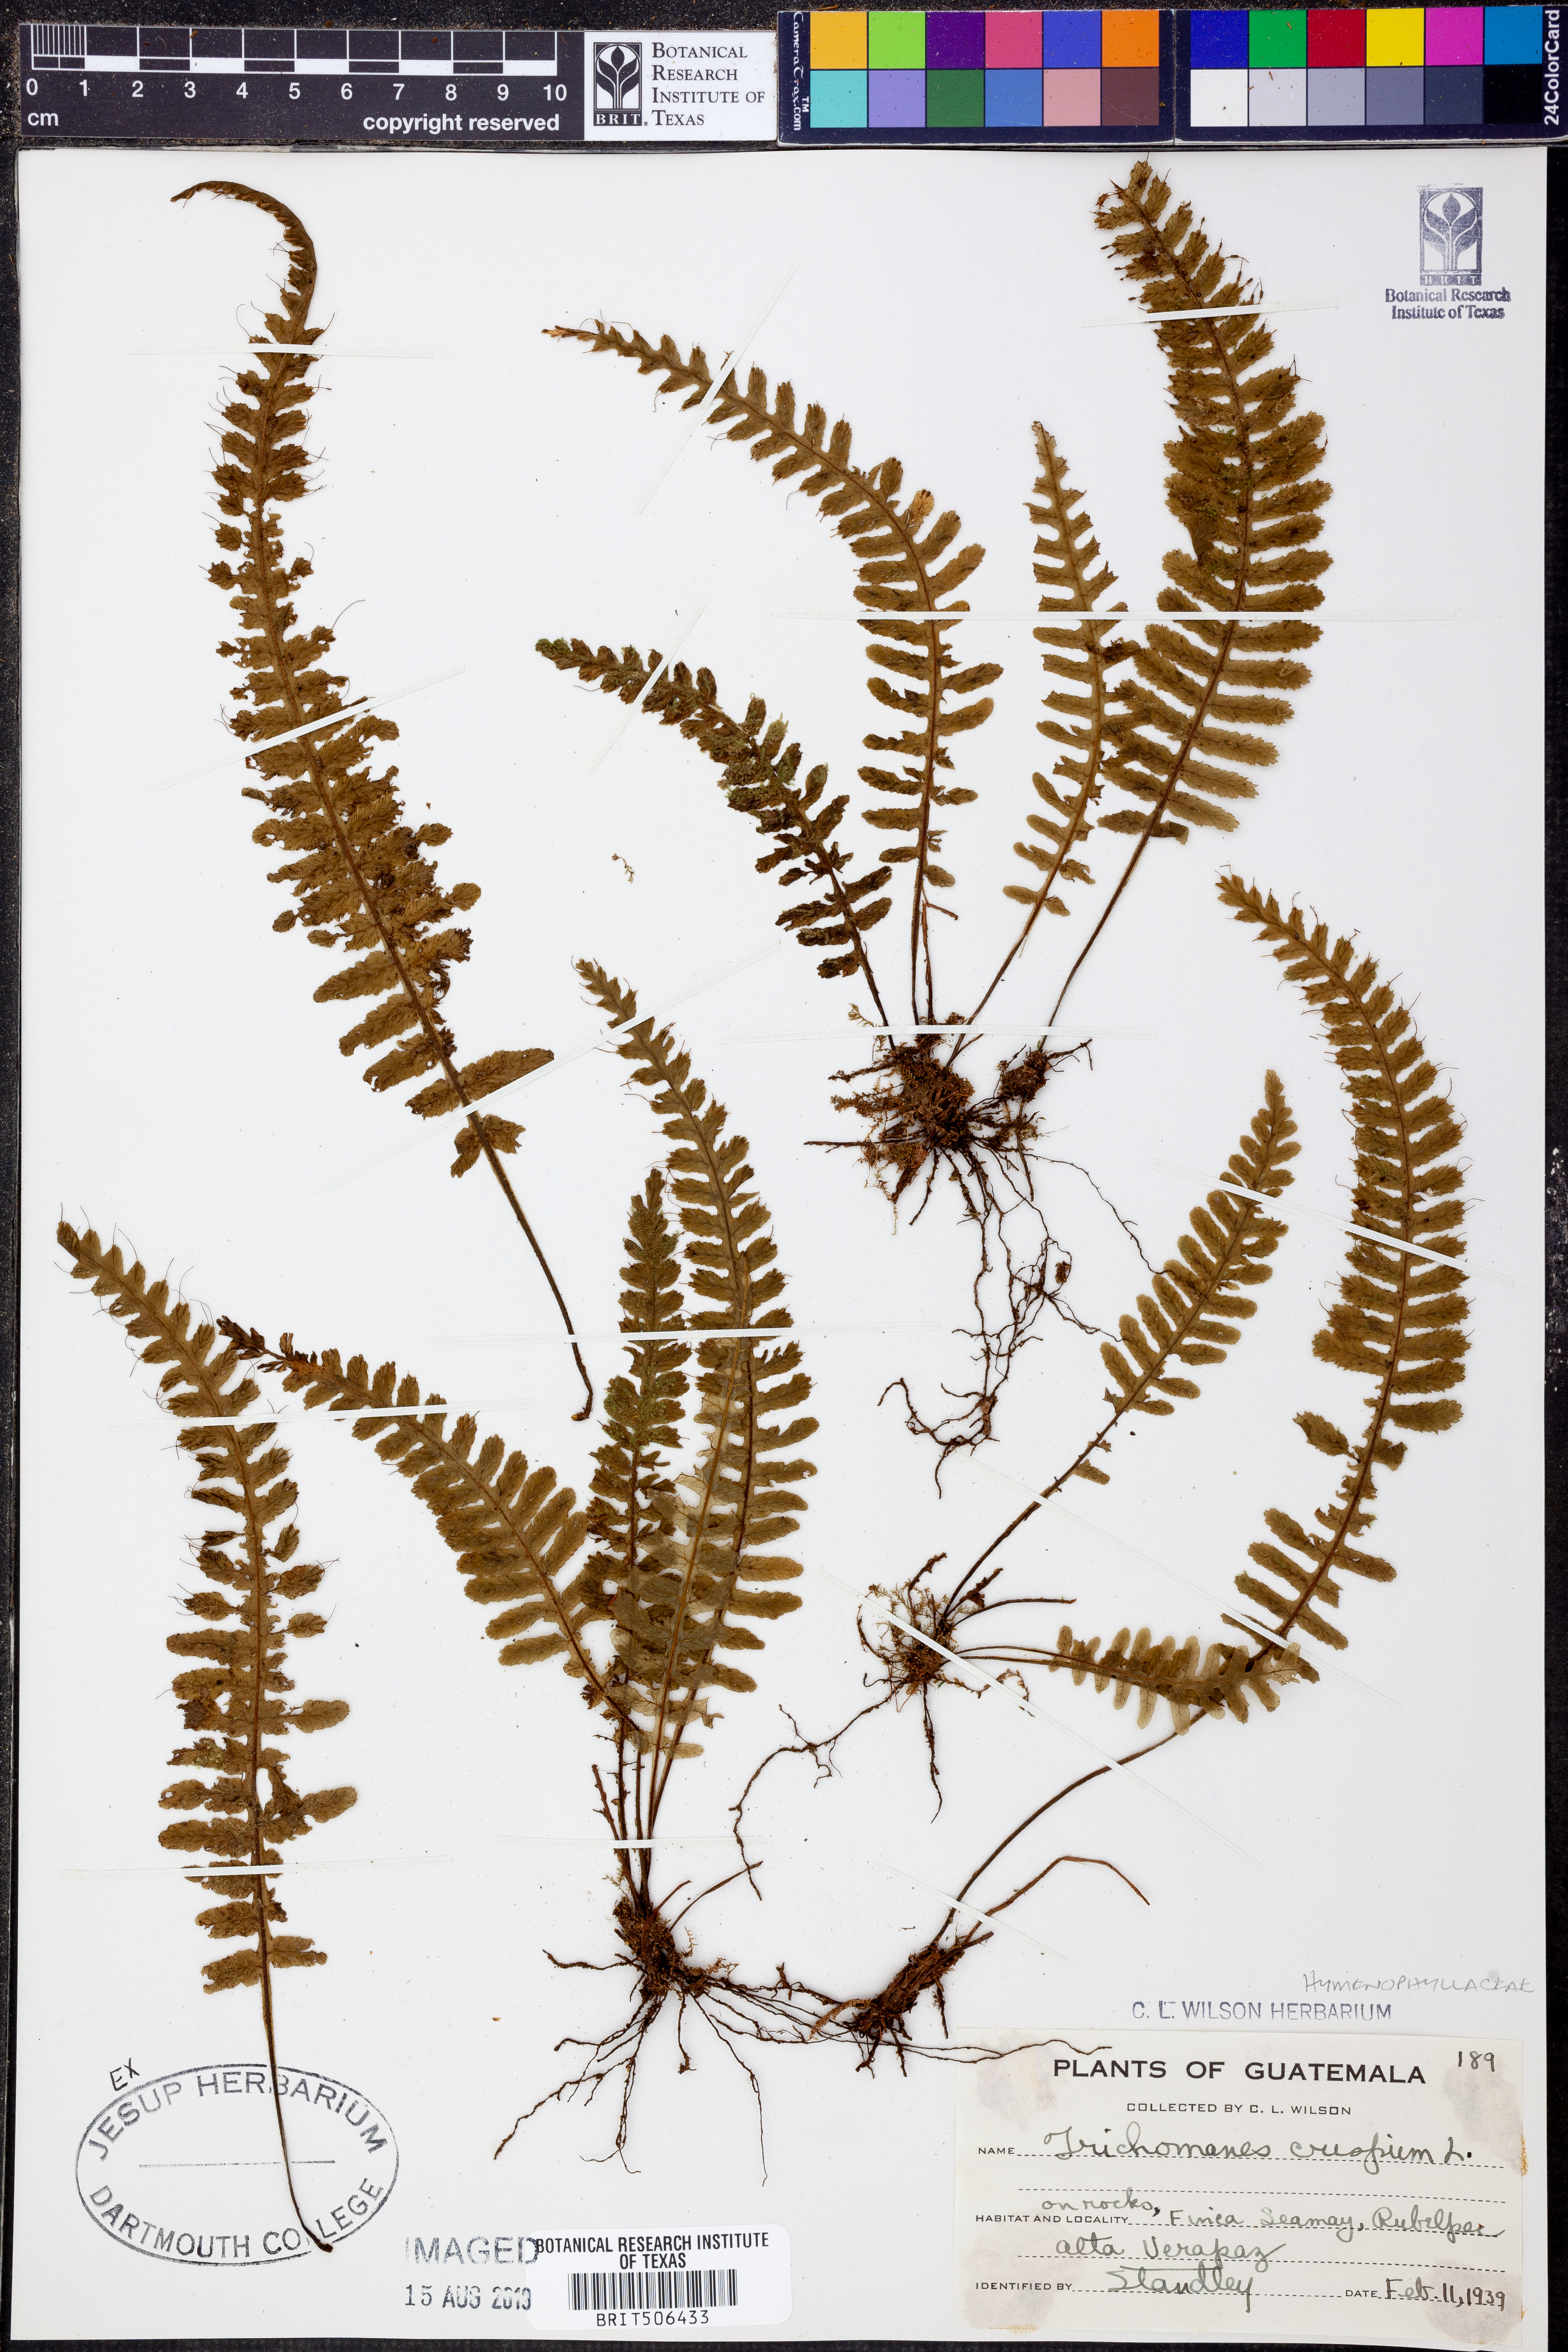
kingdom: Plantae
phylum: Tracheophyta
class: Polypodiopsida
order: Hymenophyllales
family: Hymenophyllaceae
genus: Trichomanes
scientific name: Trichomanes crispum
